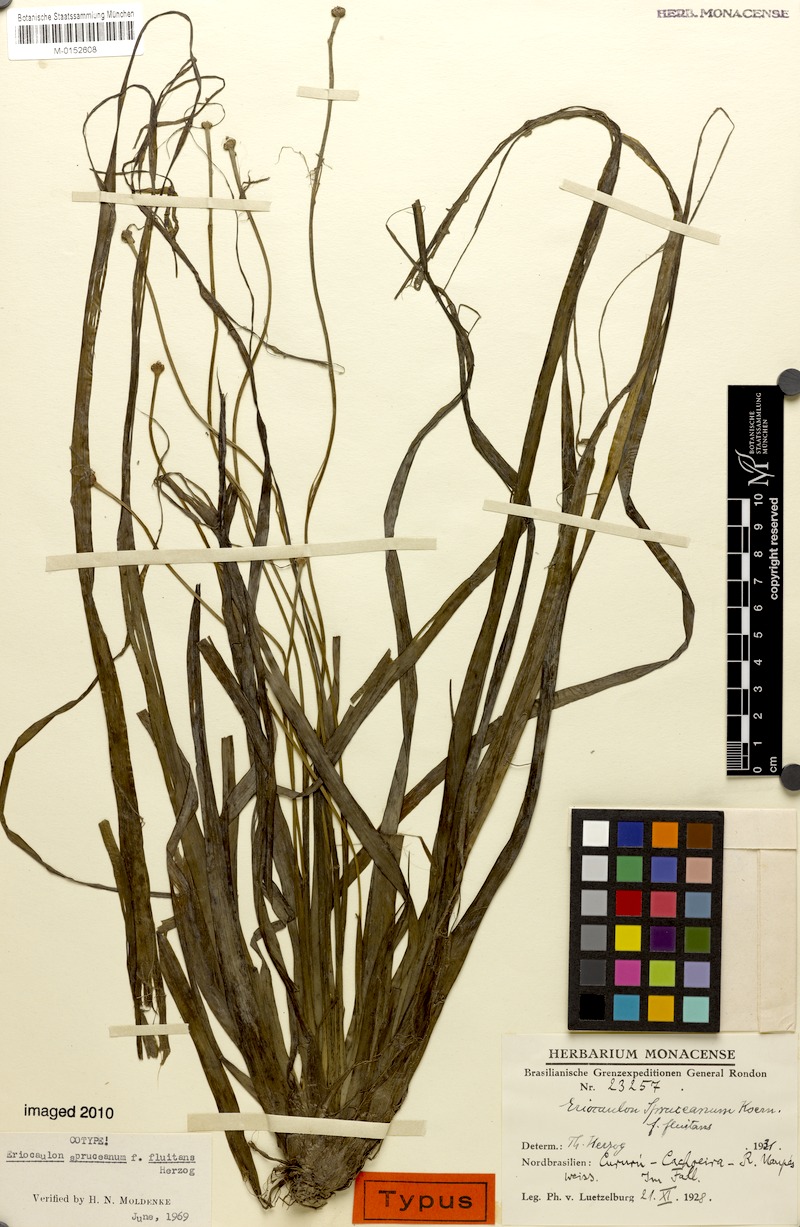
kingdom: Plantae
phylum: Tracheophyta
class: Liliopsida
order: Poales
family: Eriocaulaceae
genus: Eriocaulon
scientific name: Eriocaulon spruceanum
